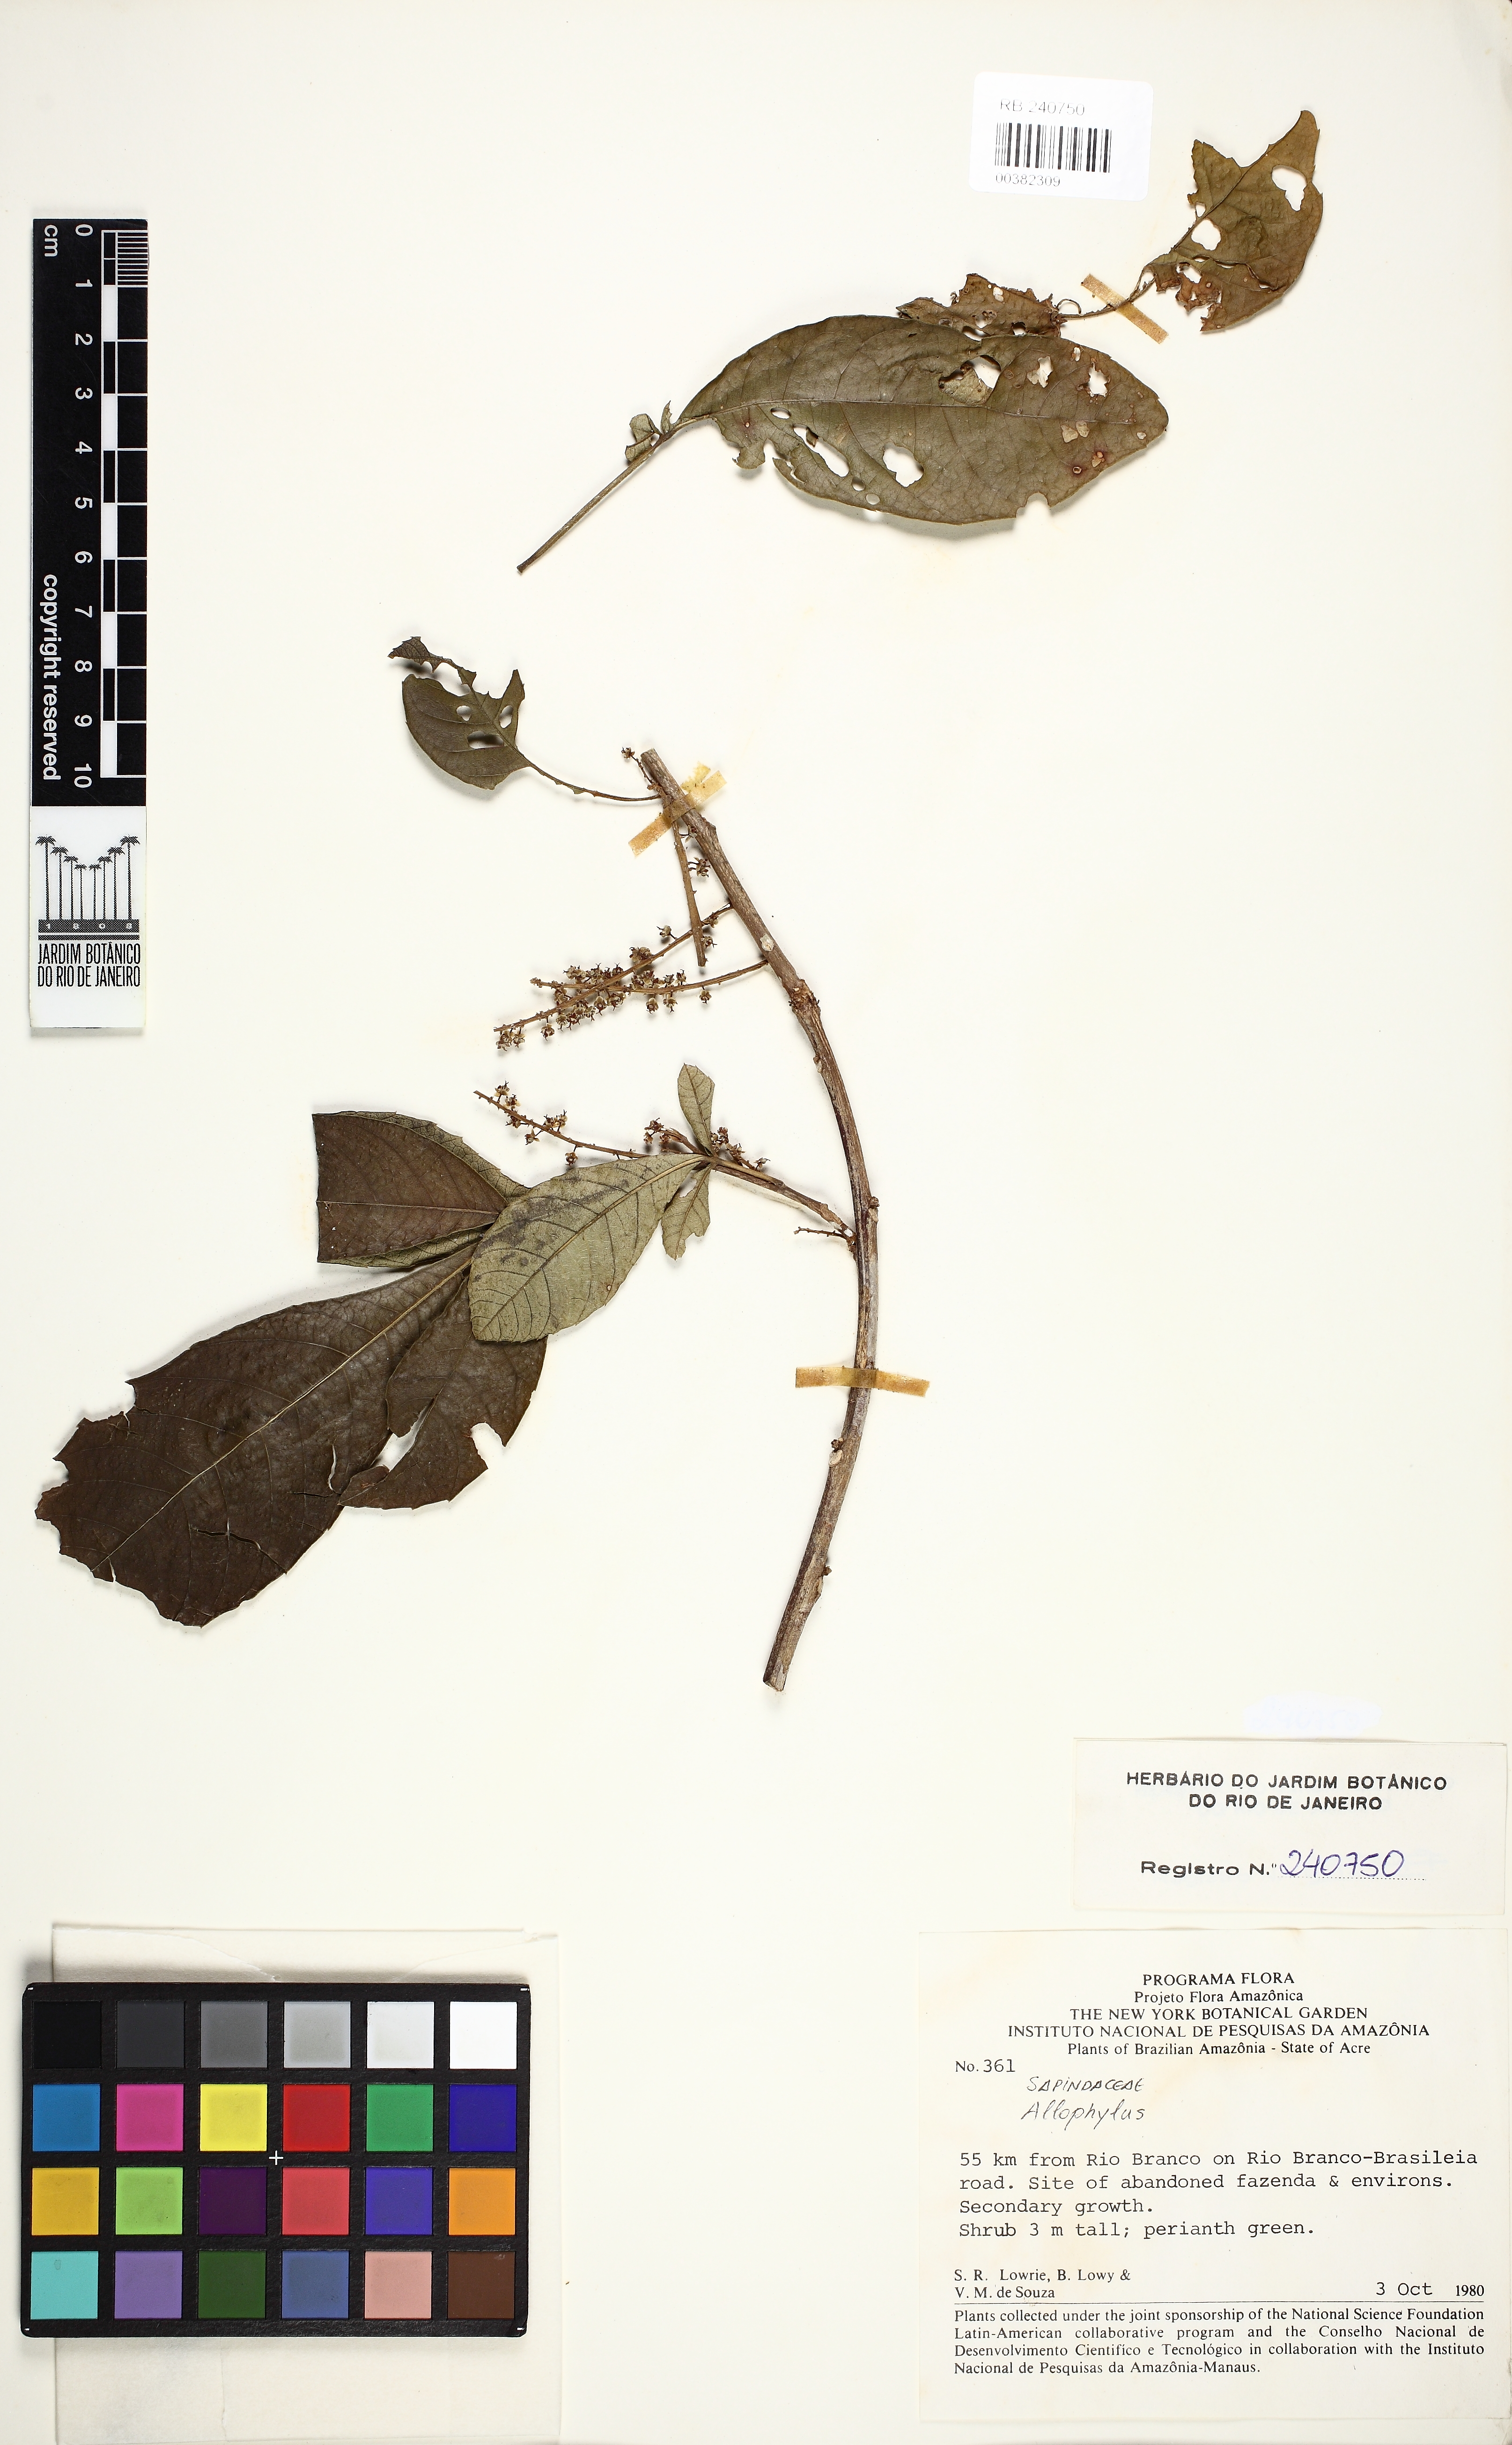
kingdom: Plantae
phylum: Tracheophyta
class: Magnoliopsida
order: Sapindales
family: Sapindaceae
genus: Allophylus
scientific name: Allophylus strictus
